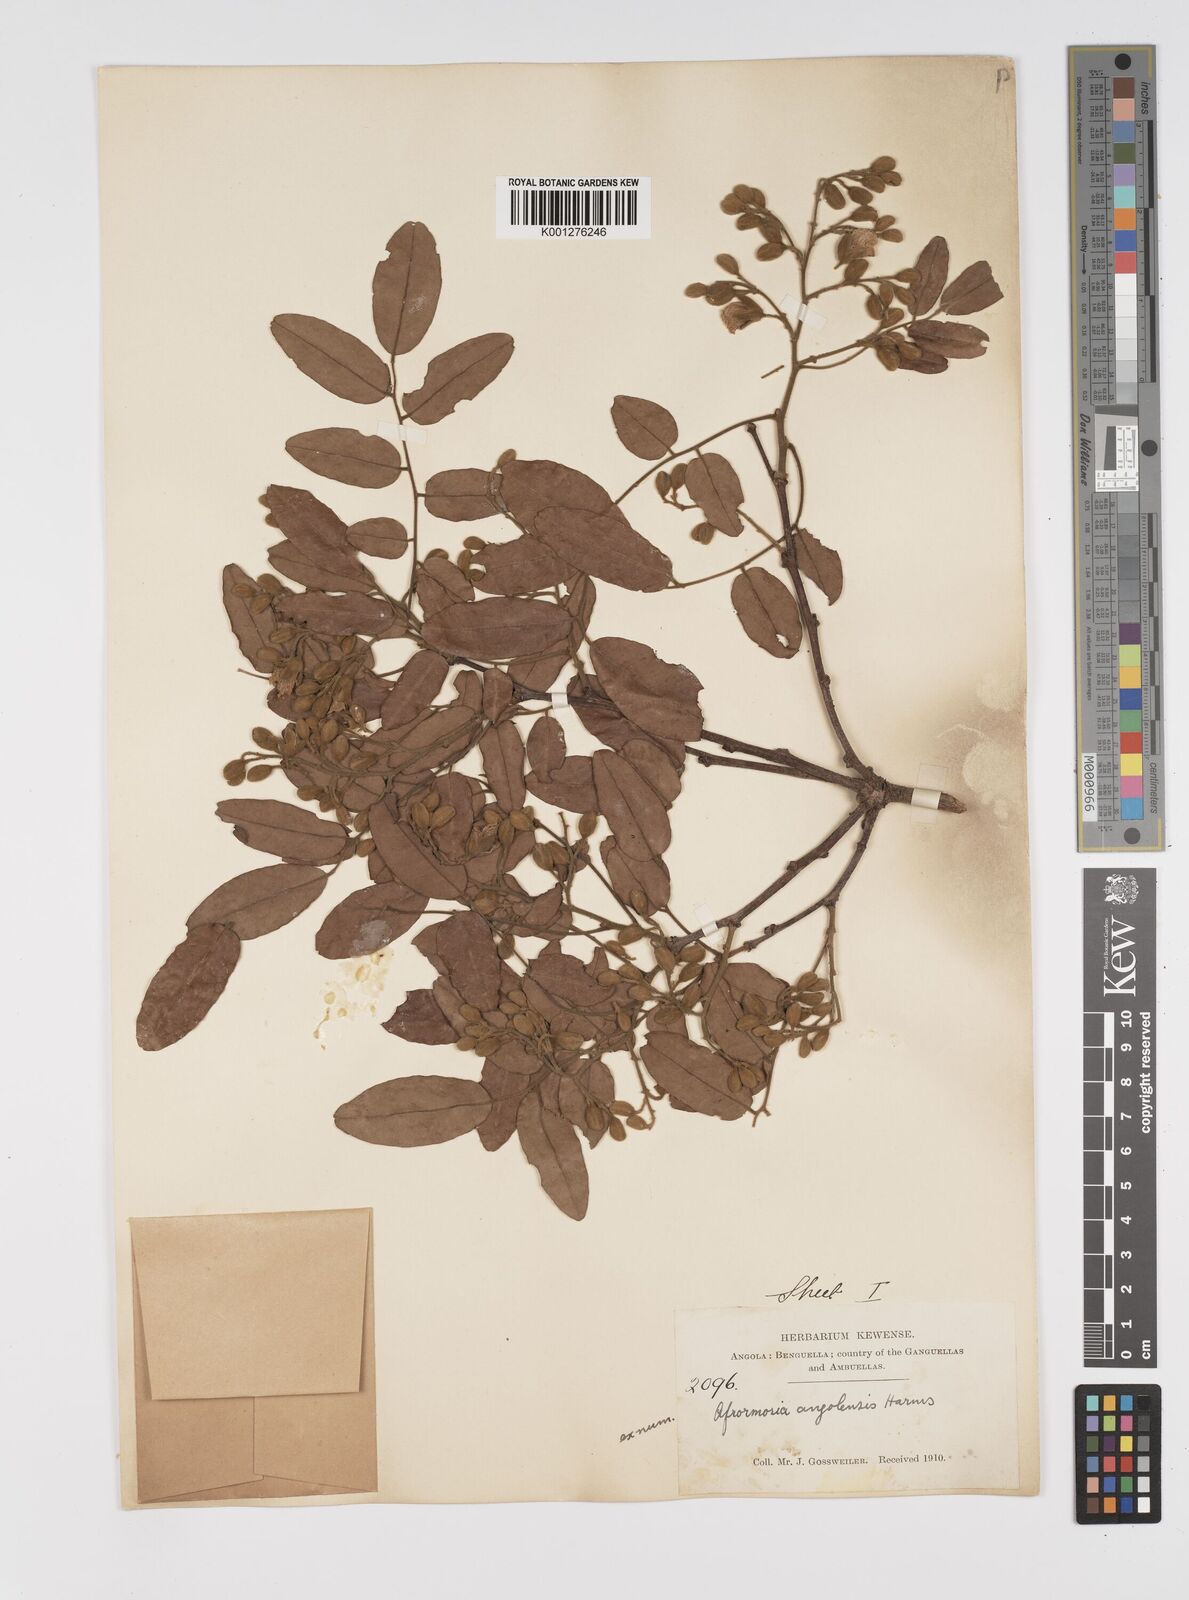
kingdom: Plantae
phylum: Tracheophyta
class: Magnoliopsida
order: Fabales
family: Fabaceae
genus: Pericopsis
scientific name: Pericopsis angolensis
